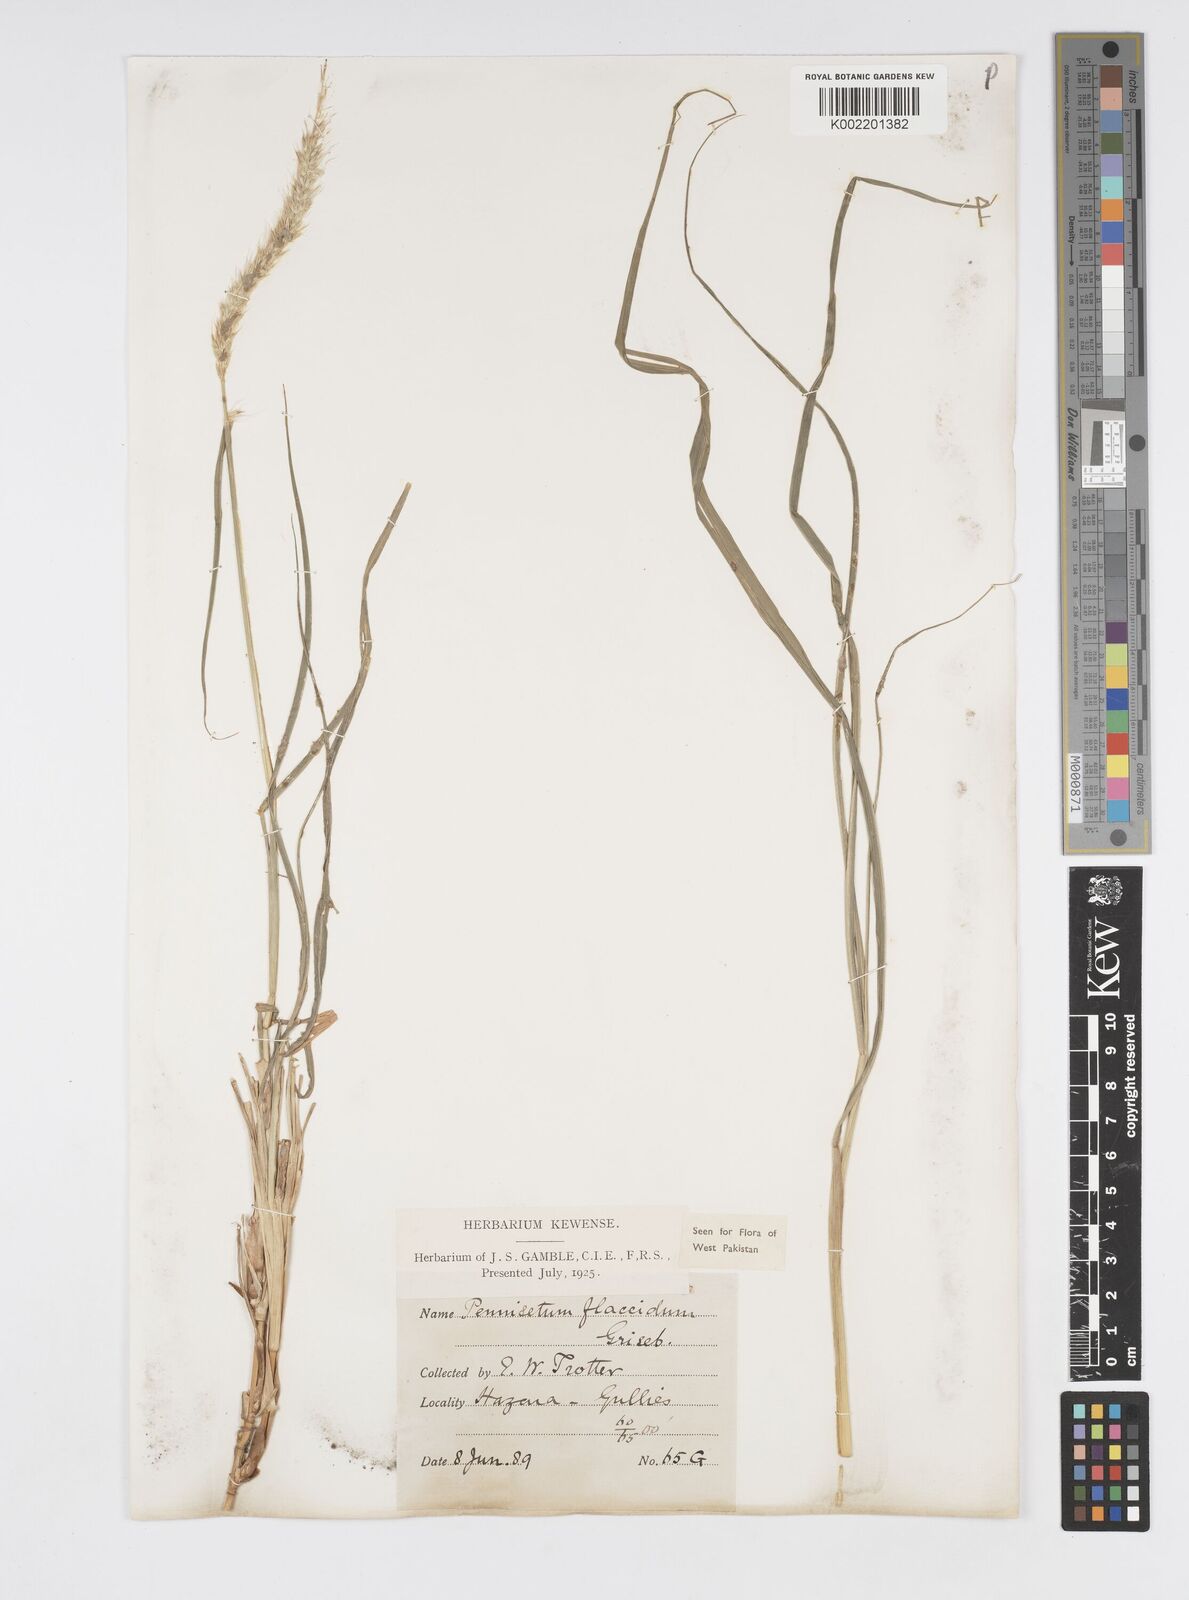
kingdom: Plantae
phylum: Tracheophyta
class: Liliopsida
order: Poales
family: Poaceae
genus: Cenchrus
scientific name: Cenchrus flaccidus
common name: Flaccid grass
